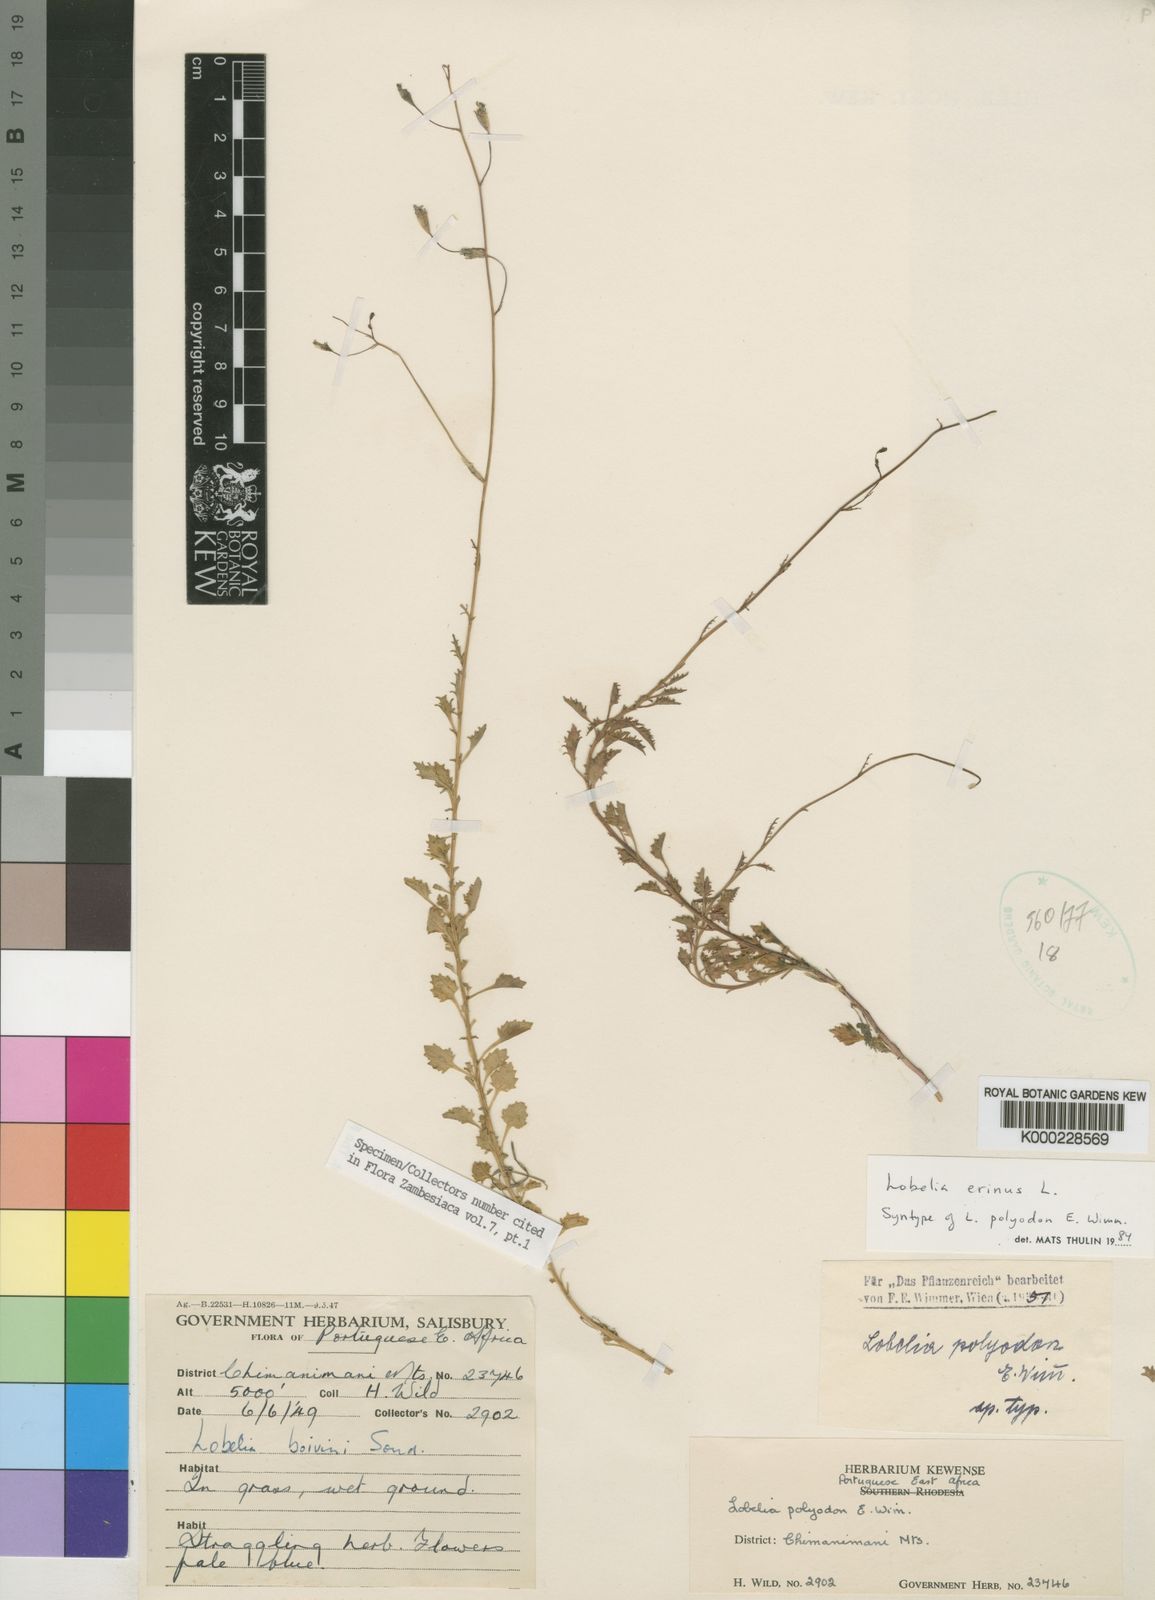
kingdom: Plantae
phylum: Tracheophyta
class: Magnoliopsida
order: Asterales
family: Campanulaceae
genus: Lobelia
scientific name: Lobelia erinus
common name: Edging lobelia
